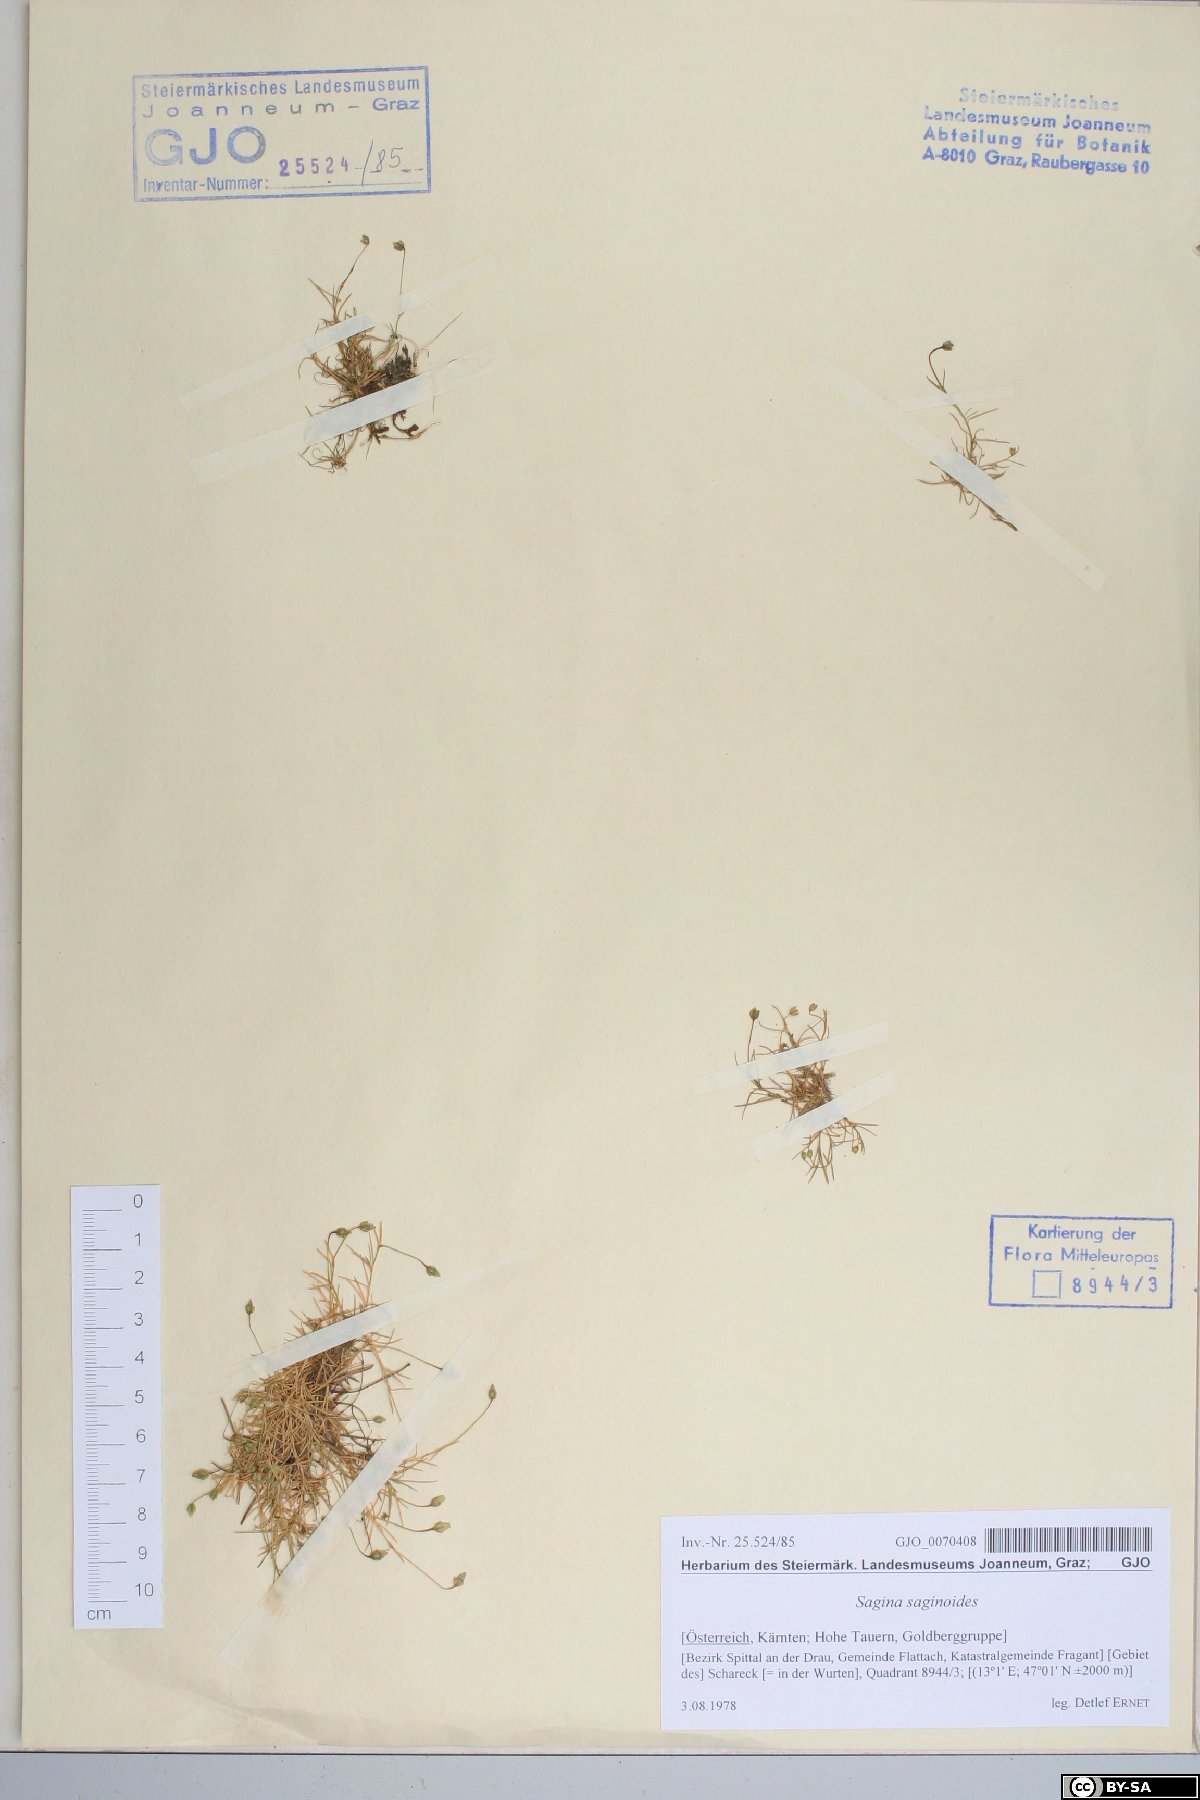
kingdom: Plantae
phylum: Tracheophyta
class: Magnoliopsida
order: Caryophyllales
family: Caryophyllaceae
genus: Sagina
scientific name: Sagina saginoides
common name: Alpine pearlwort
